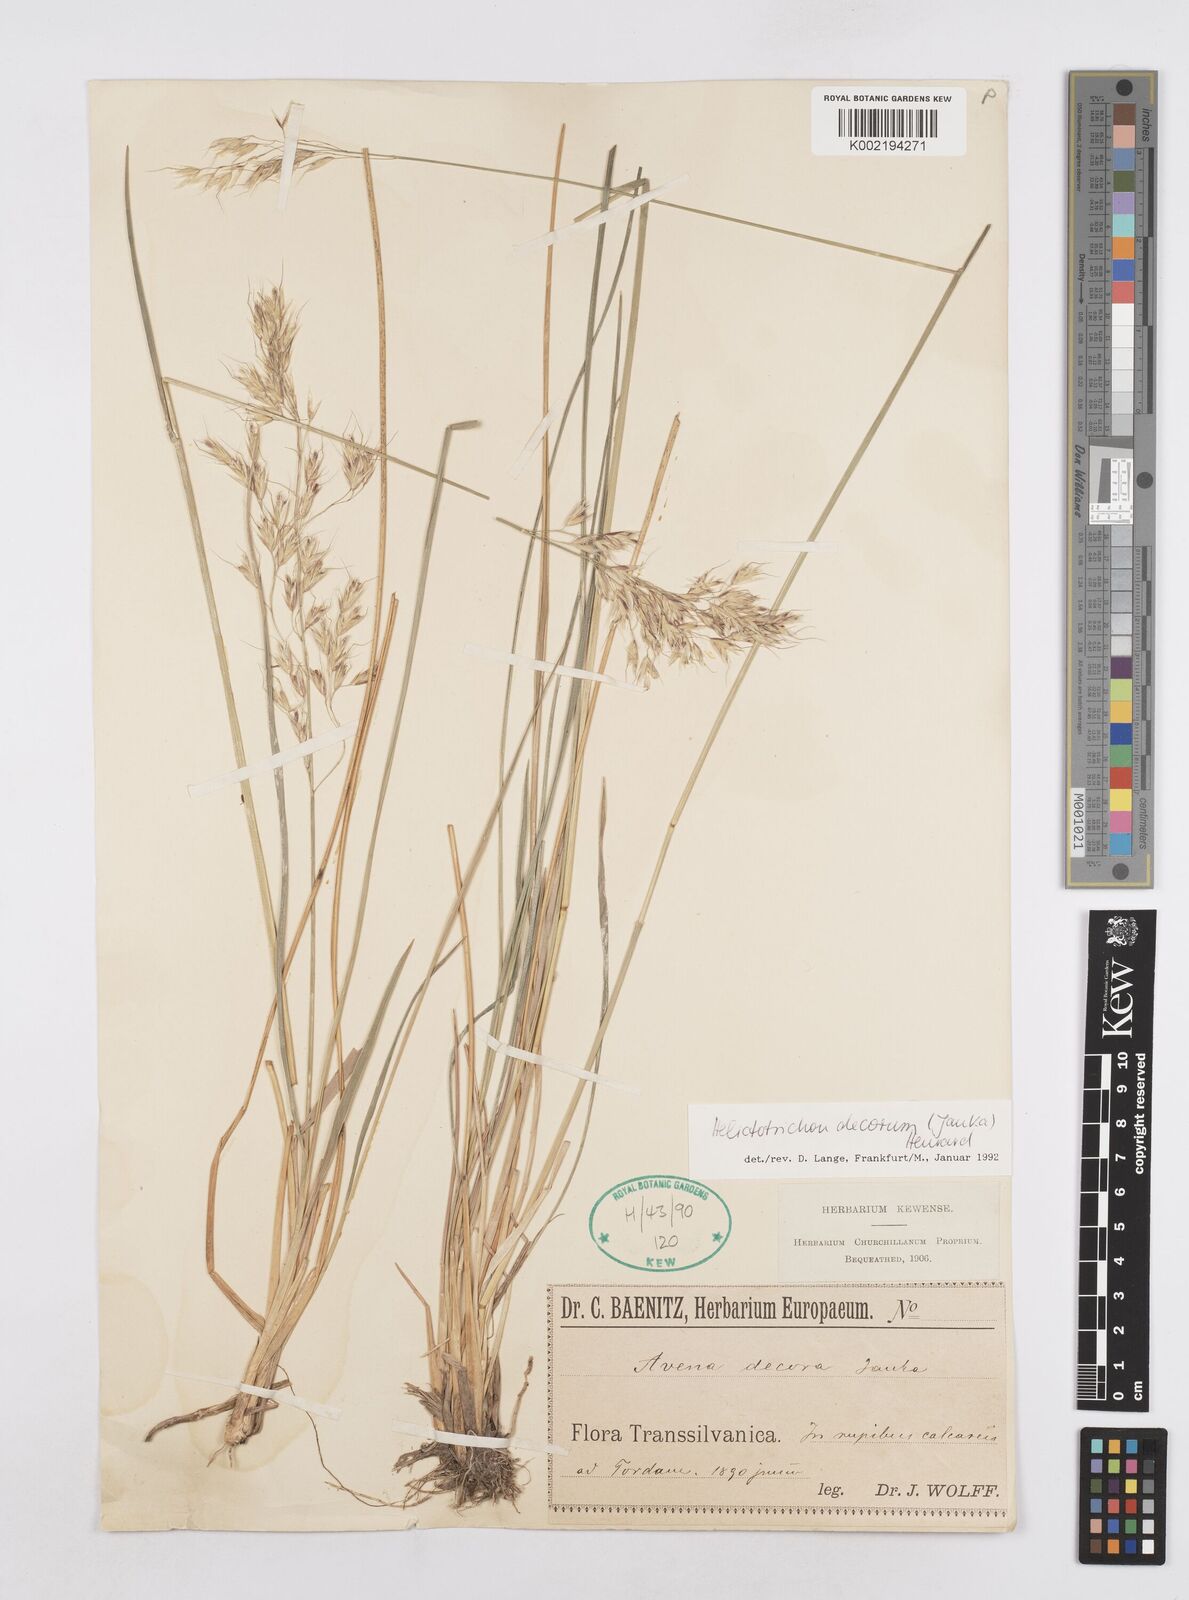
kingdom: Plantae
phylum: Tracheophyta
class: Liliopsida
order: Poales
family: Poaceae
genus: Helictotrichon
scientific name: Helictotrichon decorum
